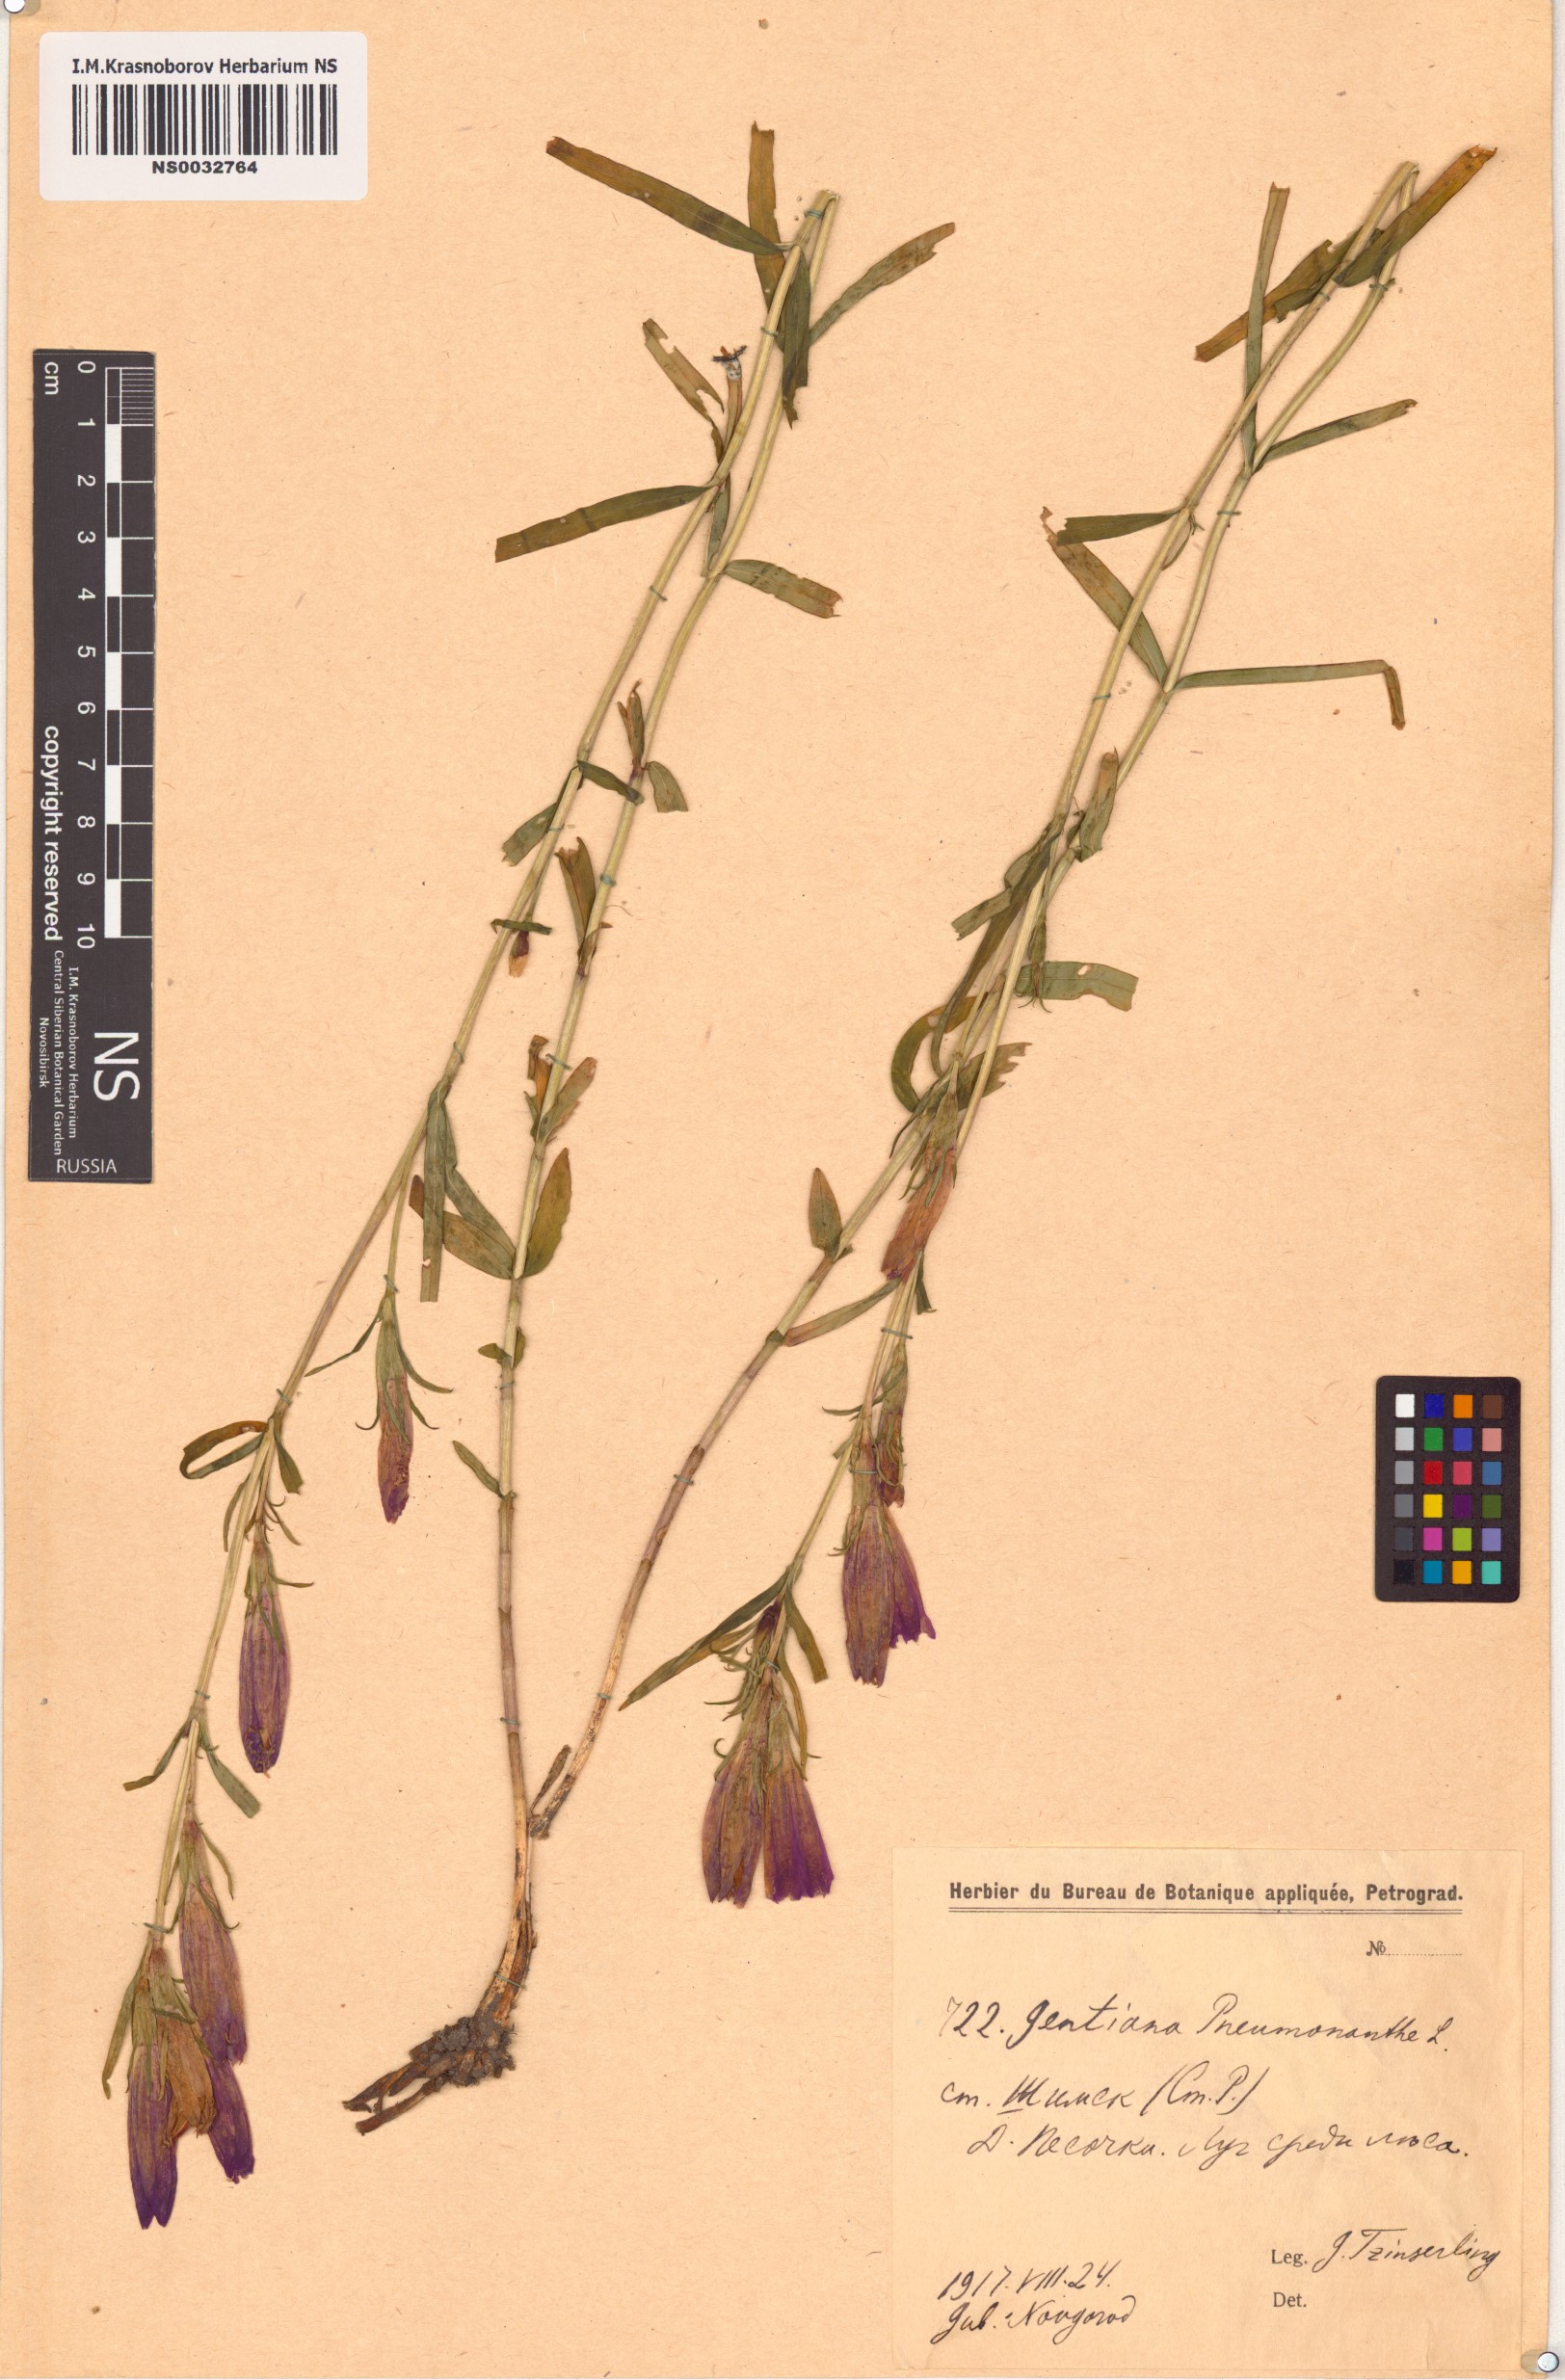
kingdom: Plantae
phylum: Tracheophyta
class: Magnoliopsida
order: Gentianales
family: Gentianaceae
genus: Gentiana
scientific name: Gentiana pneumonanthe
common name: Marsh gentian
